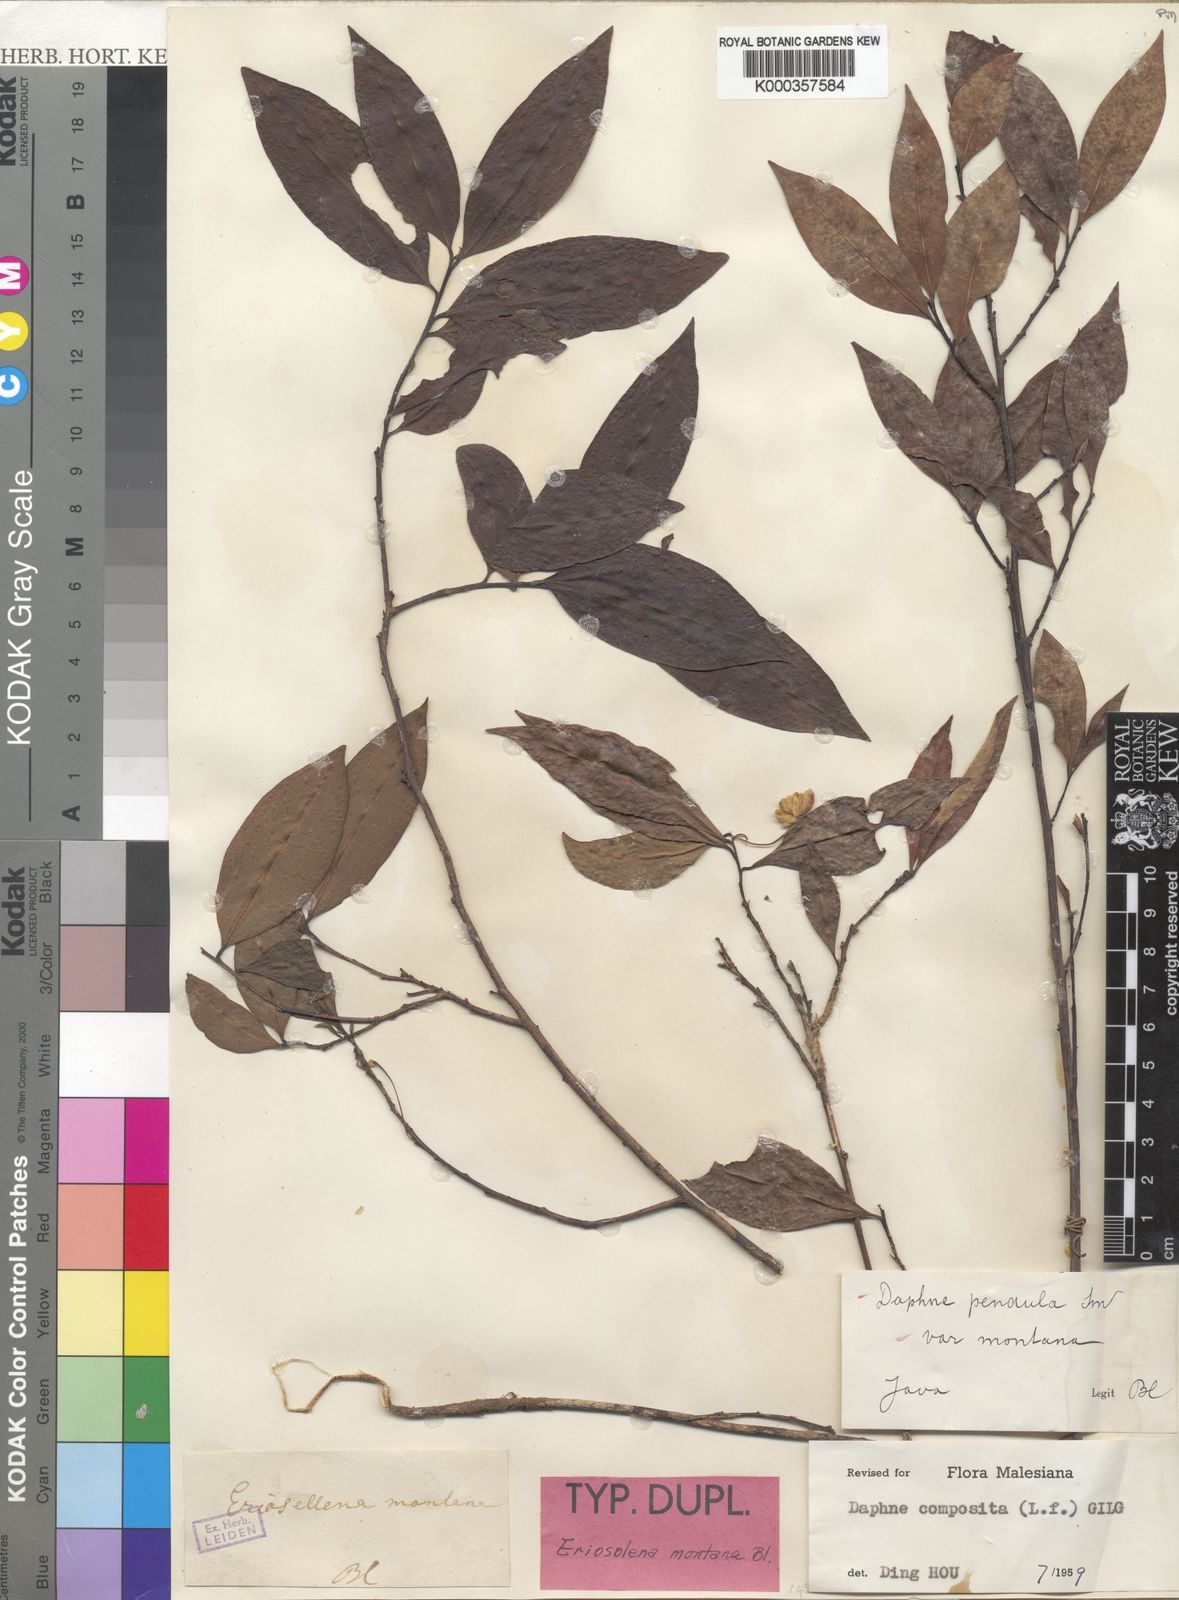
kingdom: Plantae
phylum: Tracheophyta
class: Magnoliopsida
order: Malvales
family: Thymelaeaceae
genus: Daphne
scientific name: Daphne composita
